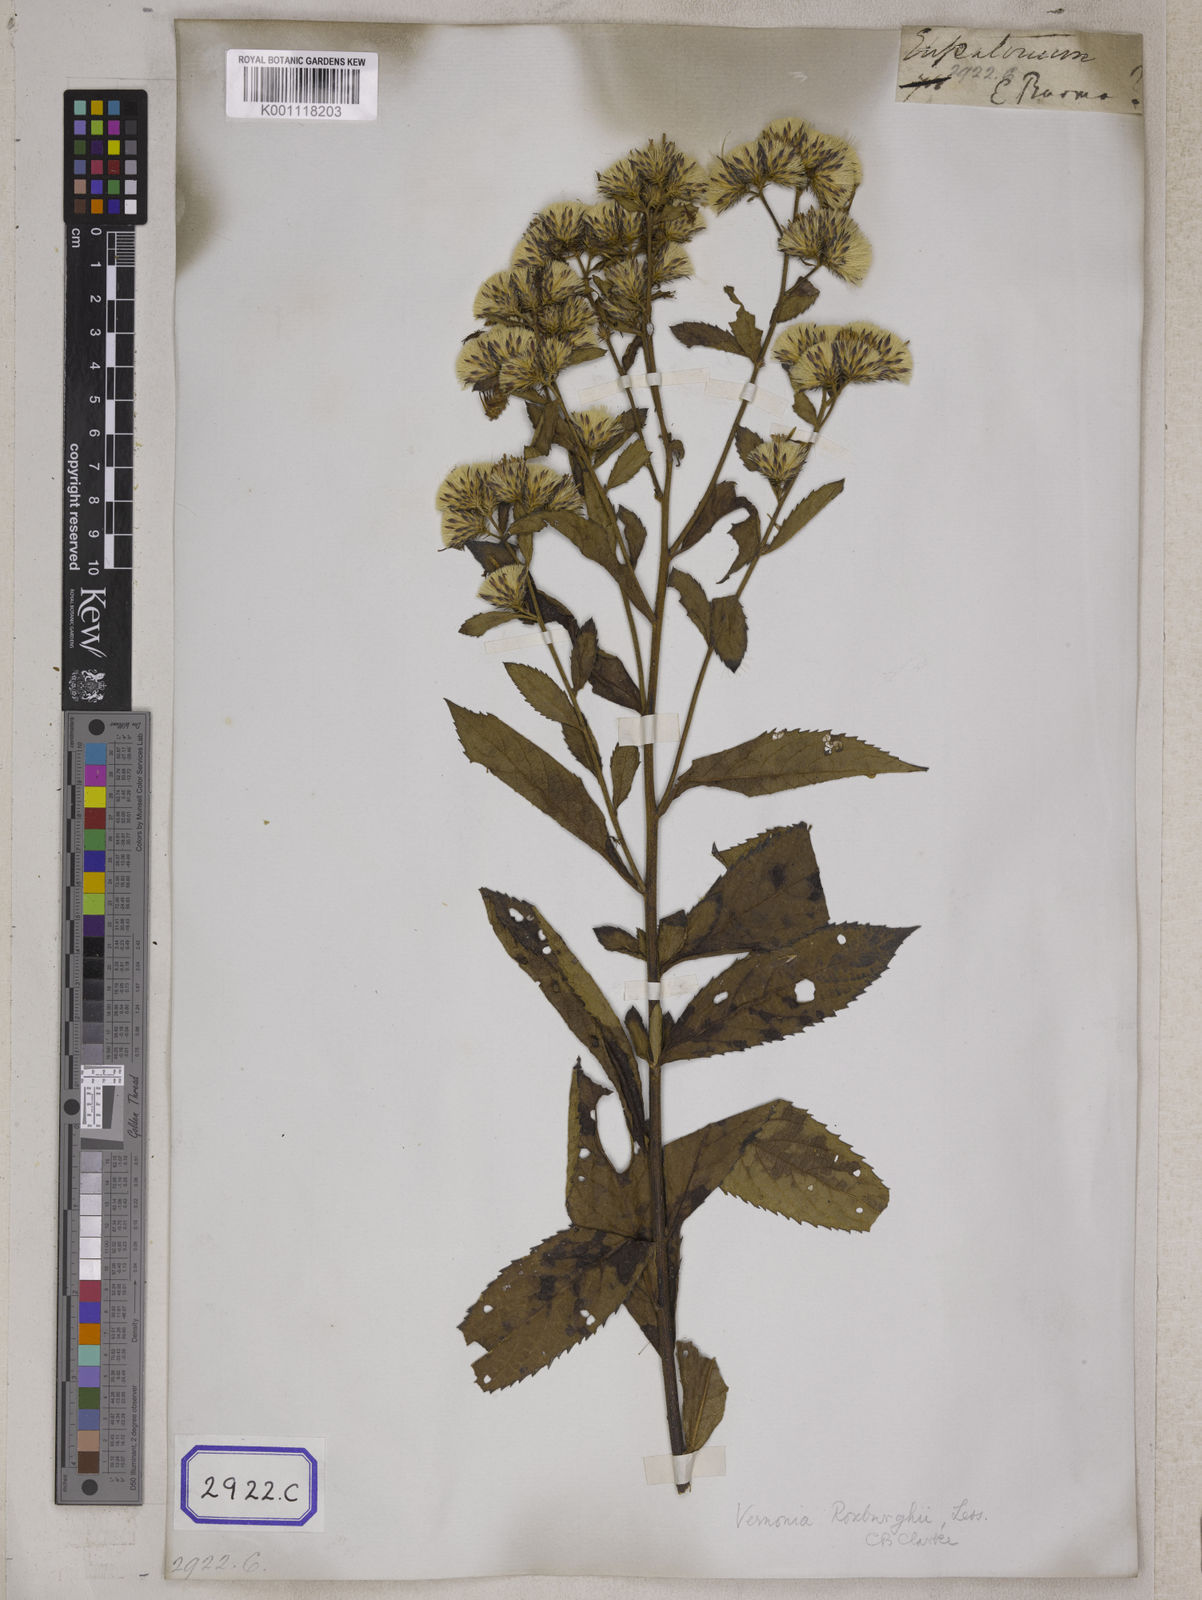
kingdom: Plantae
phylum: Tracheophyta
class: Magnoliopsida
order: Asterales
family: Asteraceae
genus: Vernonia
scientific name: Vernonia
